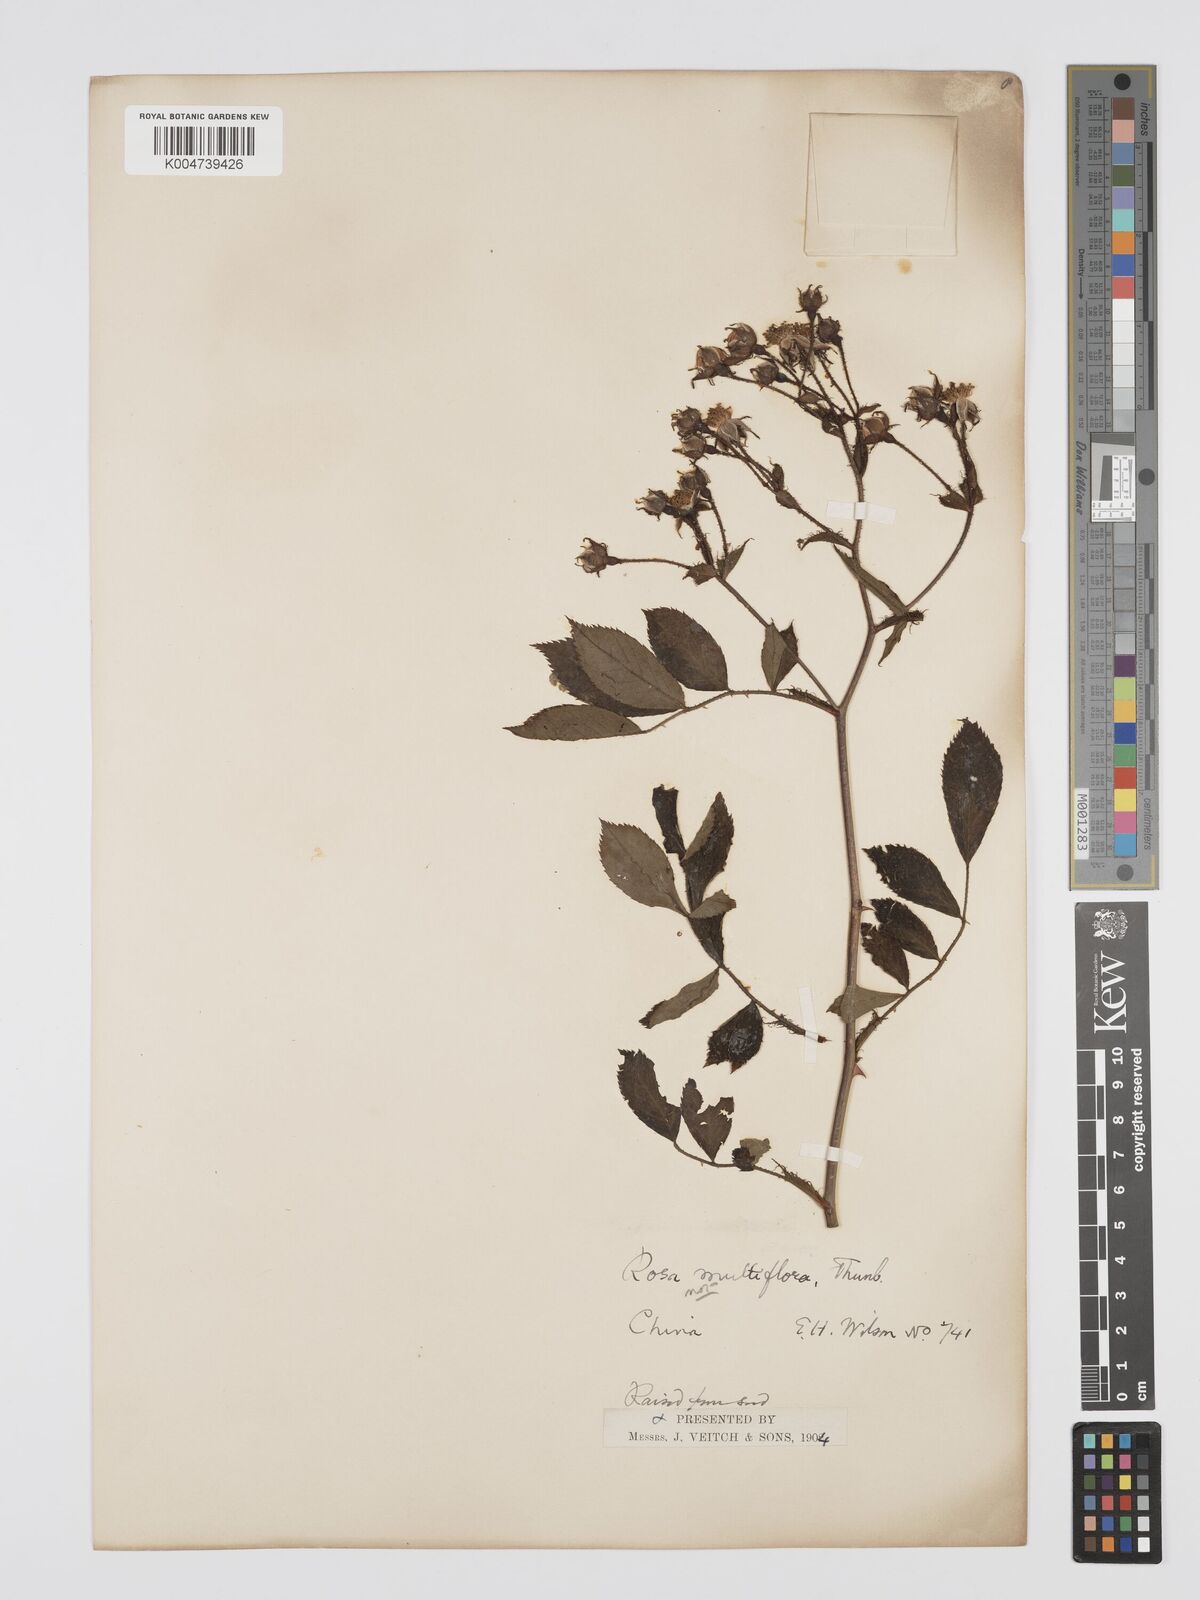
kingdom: Plantae
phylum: Tracheophyta
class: Magnoliopsida
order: Rosales
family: Rosaceae
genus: Rosa
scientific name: Rosa multiflora
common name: Multiflora rose
